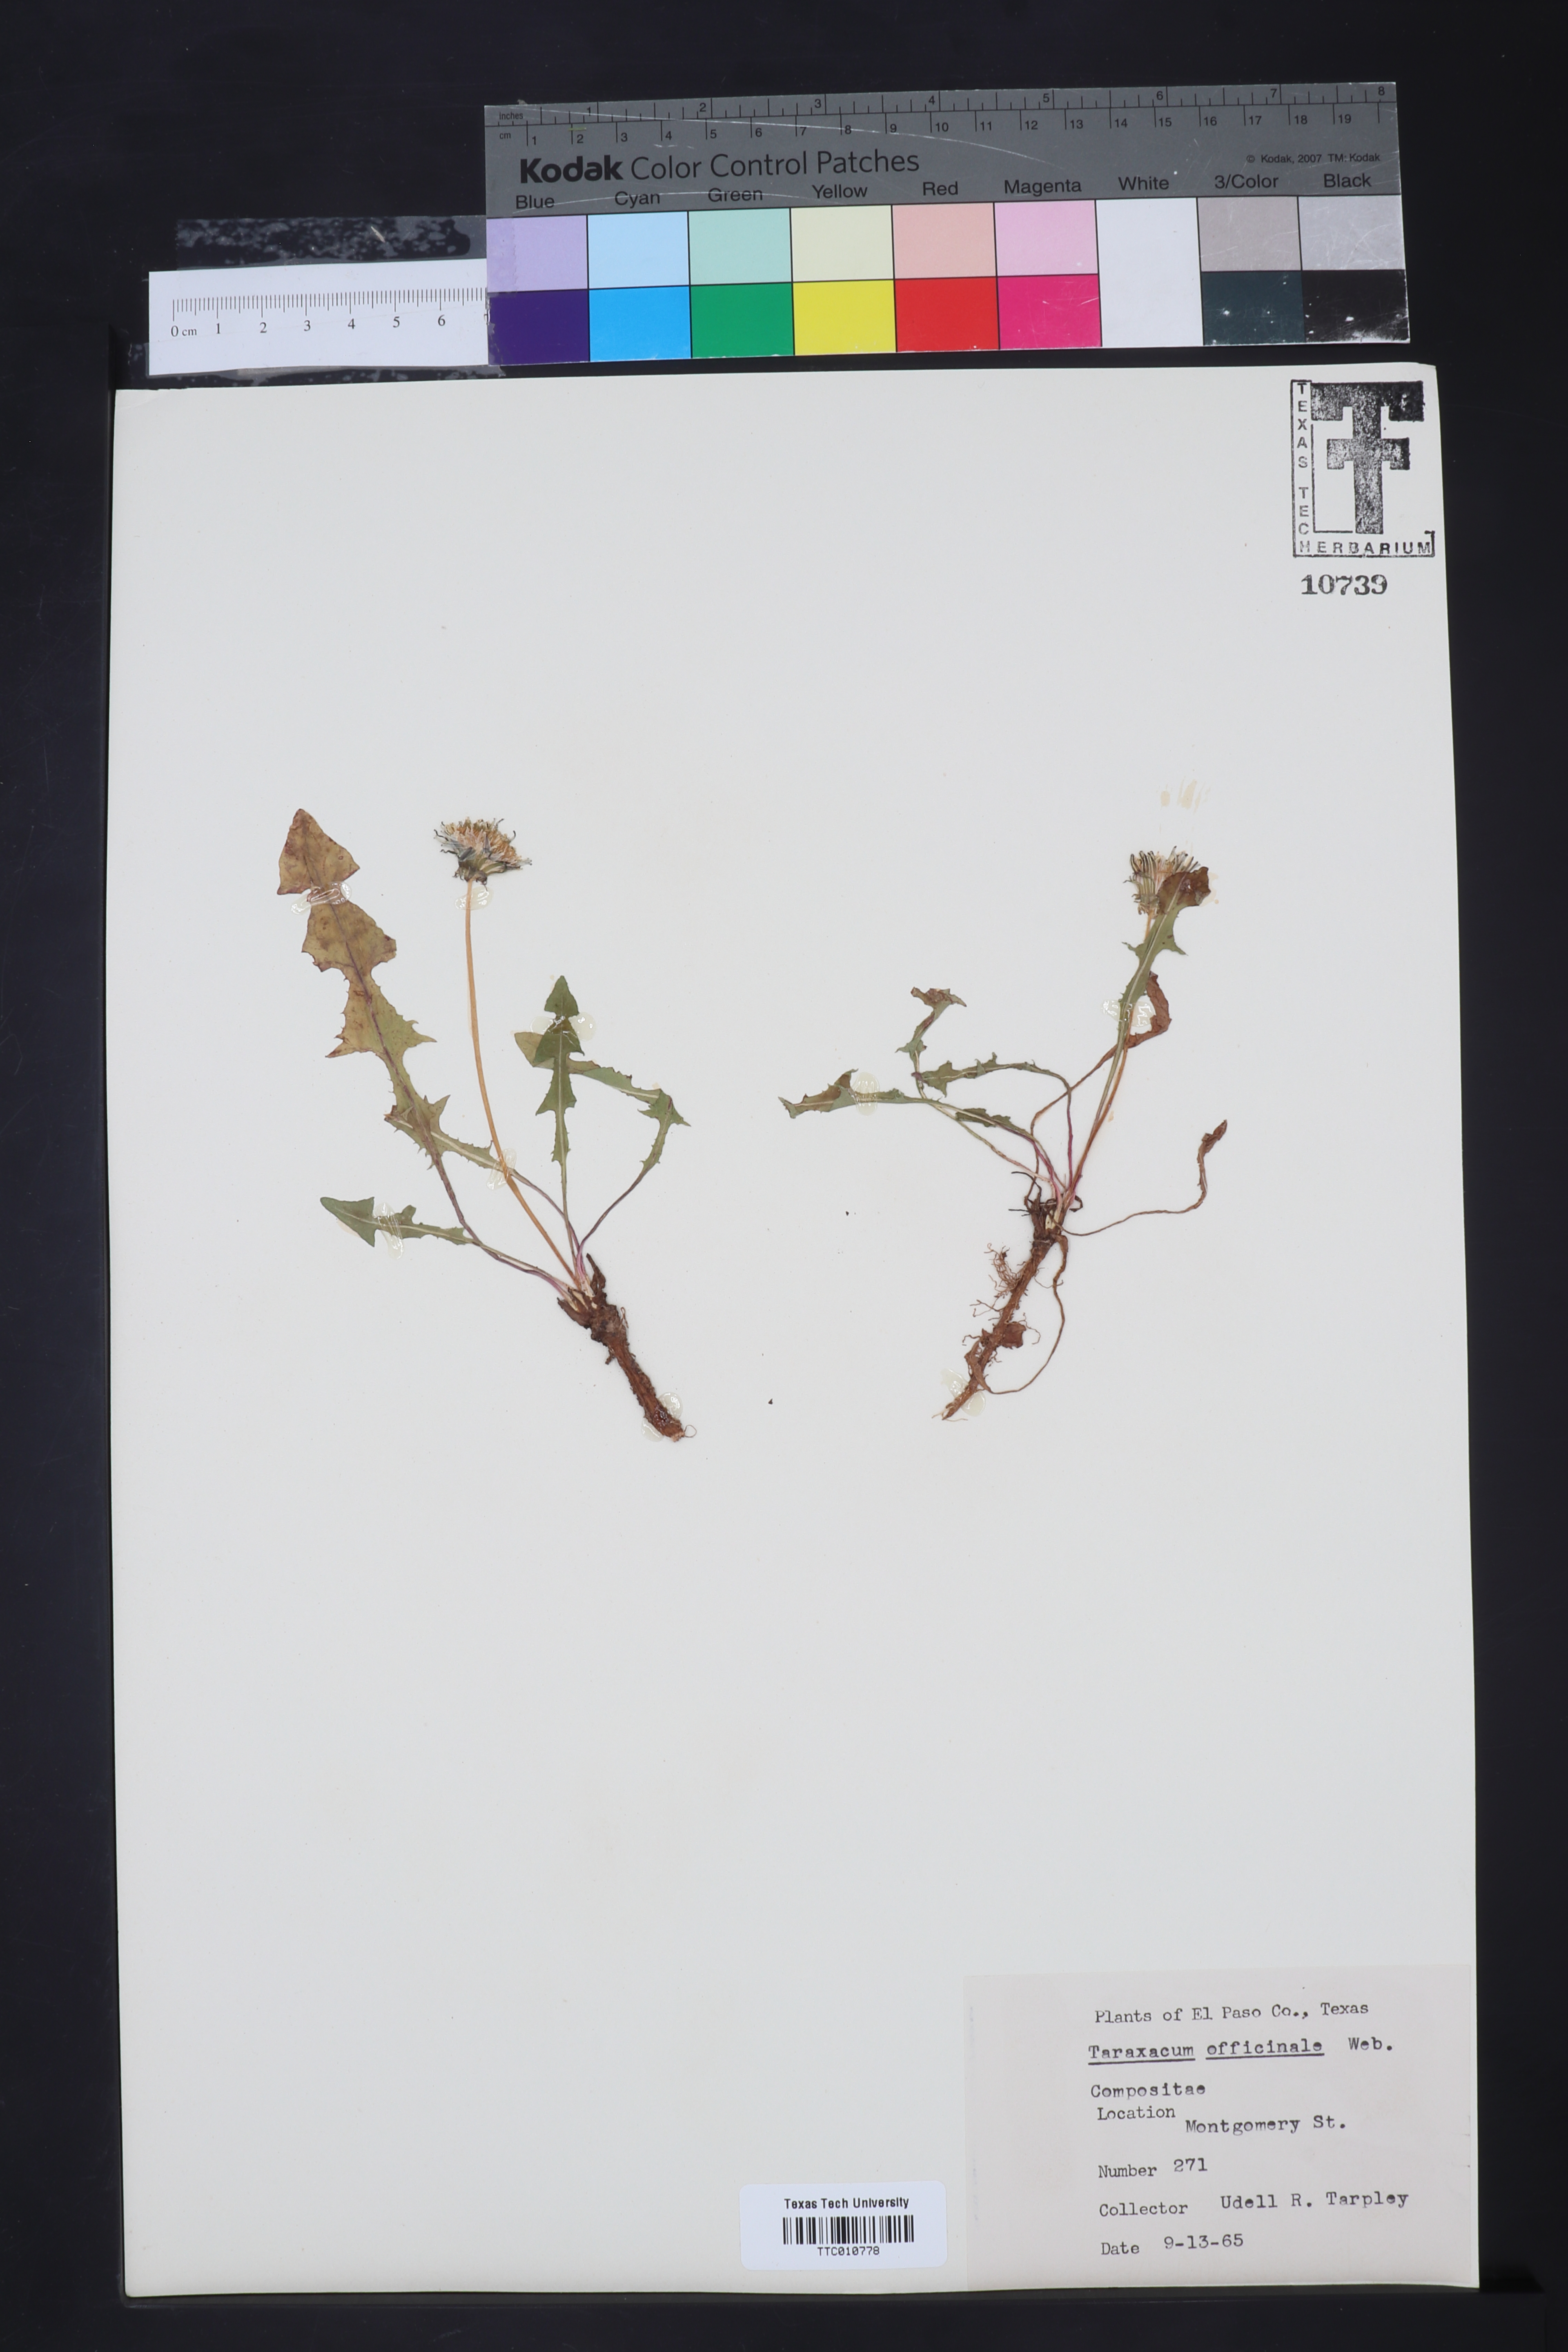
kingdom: Plantae
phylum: Tracheophyta
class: Magnoliopsida
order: Asterales
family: Asteraceae
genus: Taraxacum
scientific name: Taraxacum officinale
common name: Common dandelion
